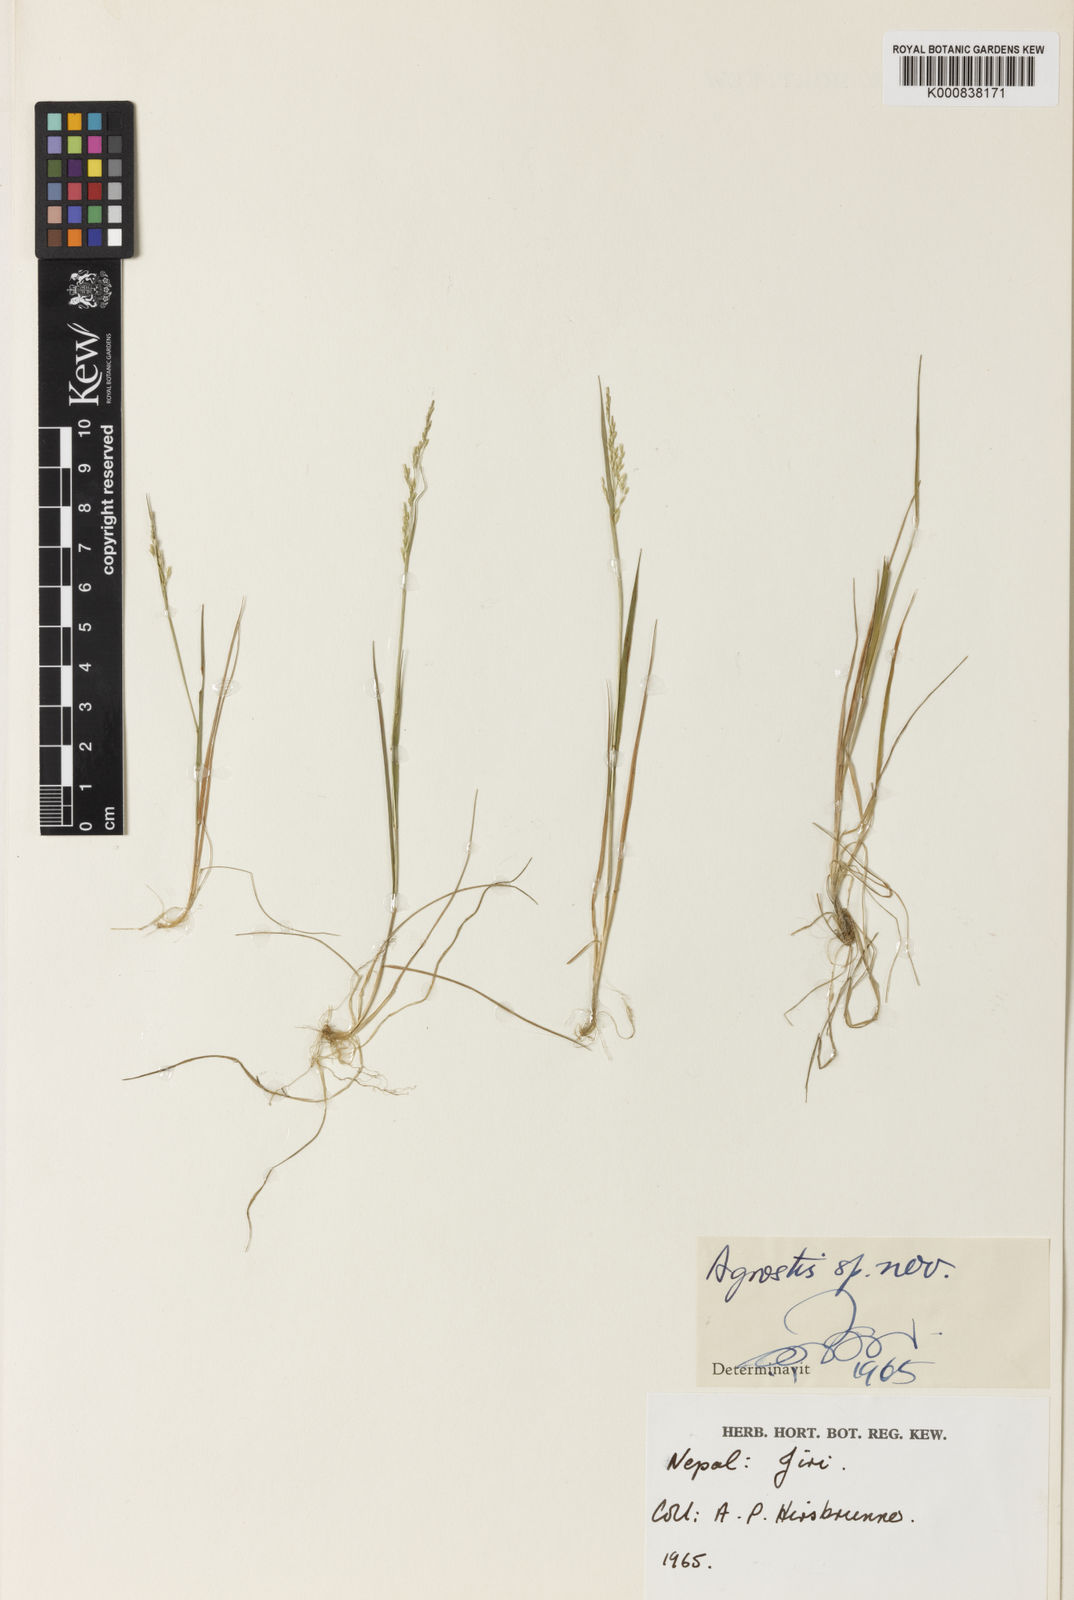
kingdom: Plantae
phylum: Tracheophyta
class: Liliopsida
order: Poales
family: Poaceae
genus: Agrostis
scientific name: Agrostis
